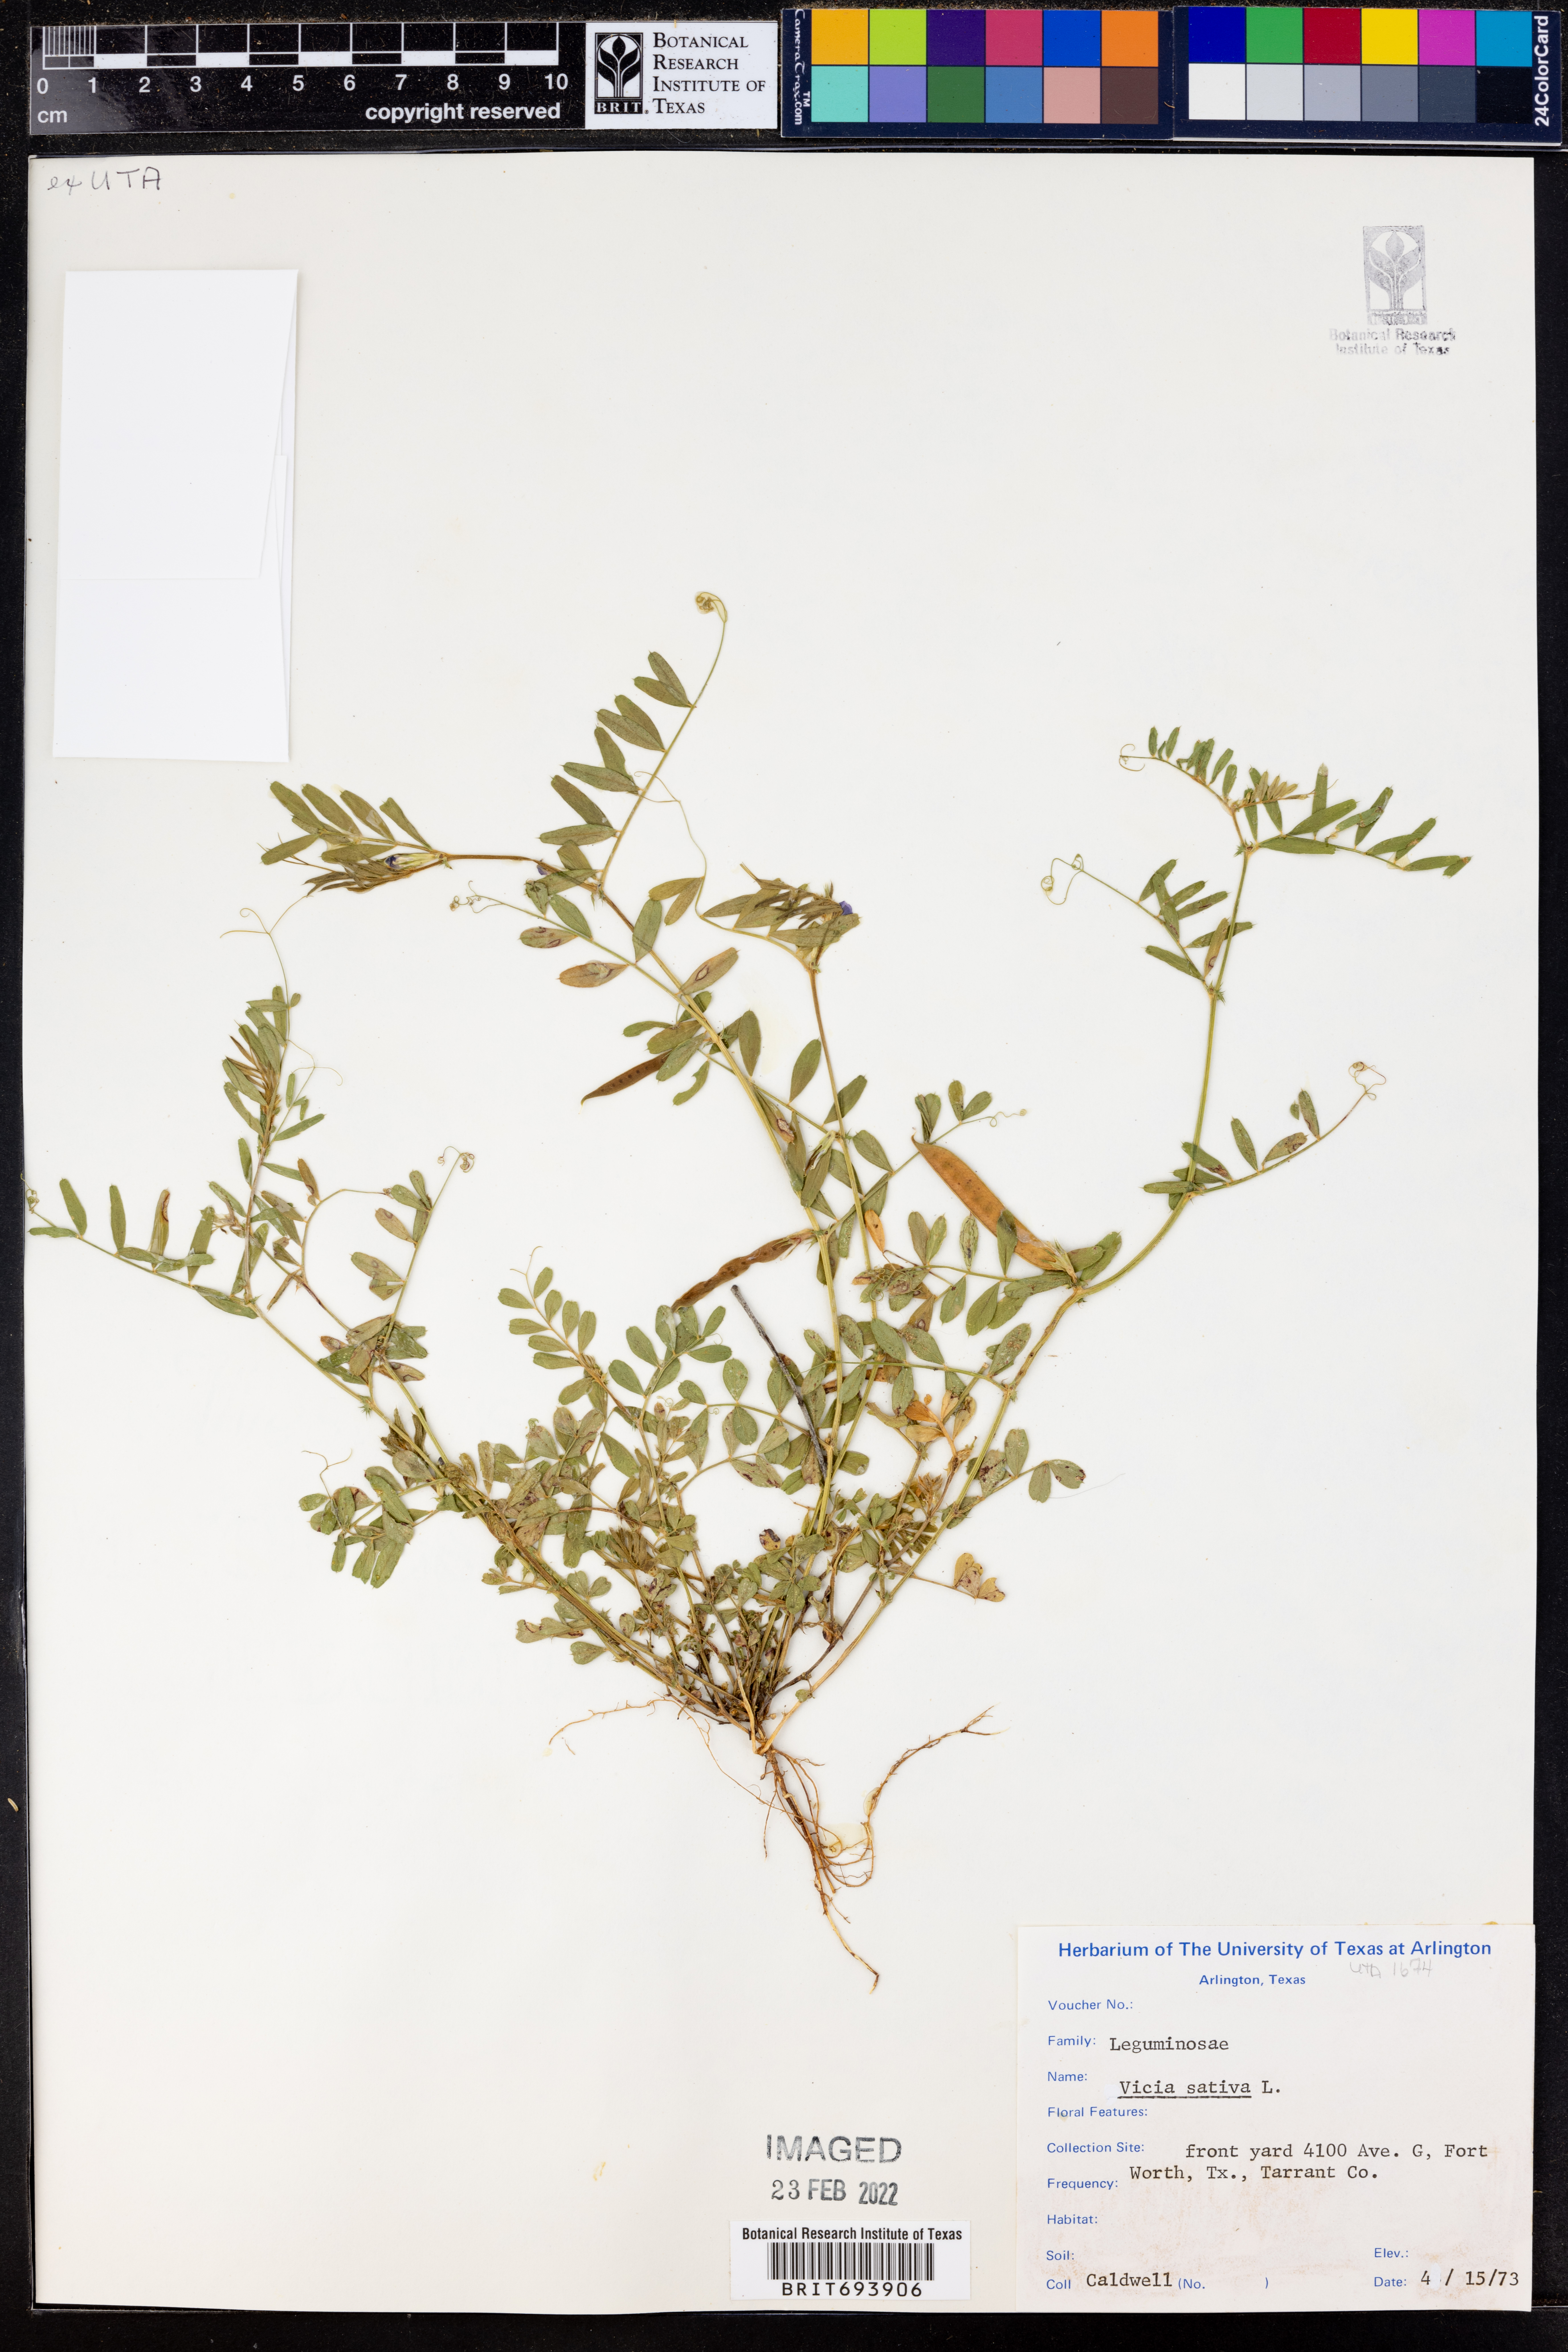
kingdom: Plantae
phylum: Tracheophyta
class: Magnoliopsida
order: Fabales
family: Fabaceae
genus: Vicia
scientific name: Vicia sativa
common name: Garden vetch
